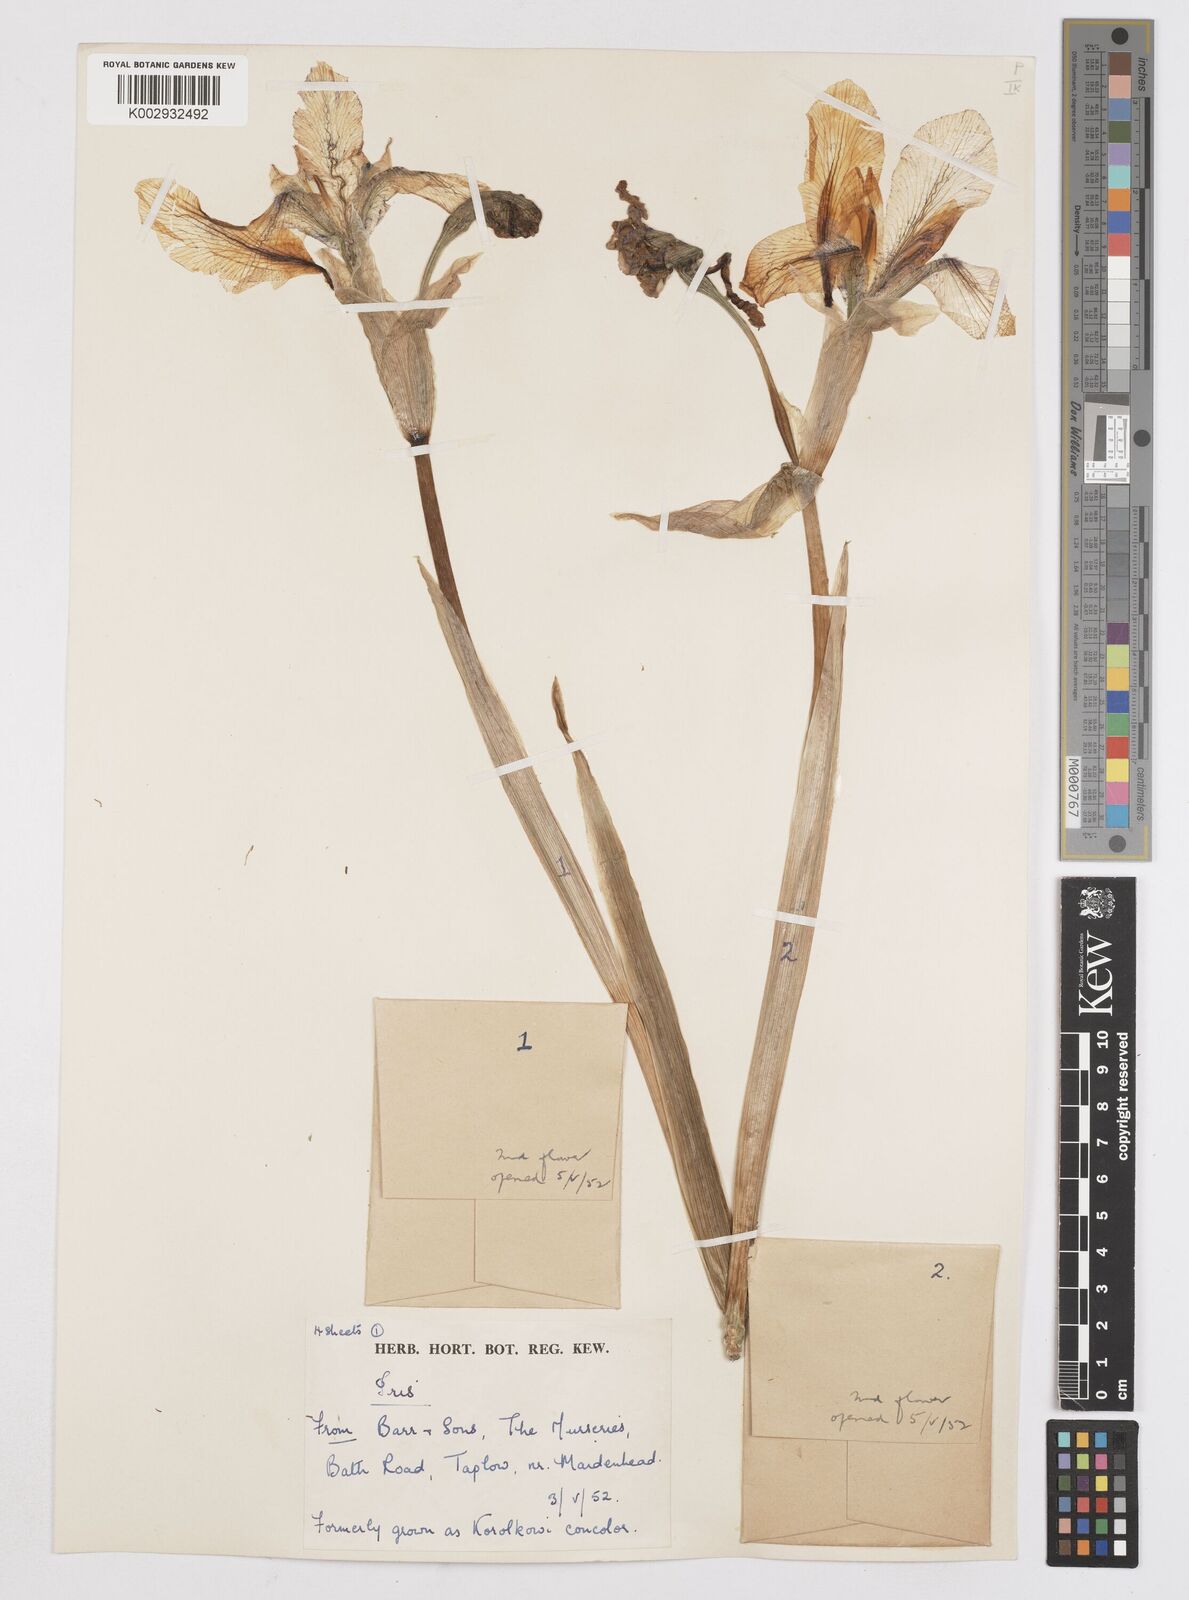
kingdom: Plantae
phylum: Tracheophyta
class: Liliopsida
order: Asparagales
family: Iridaceae
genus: Iris
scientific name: Iris
